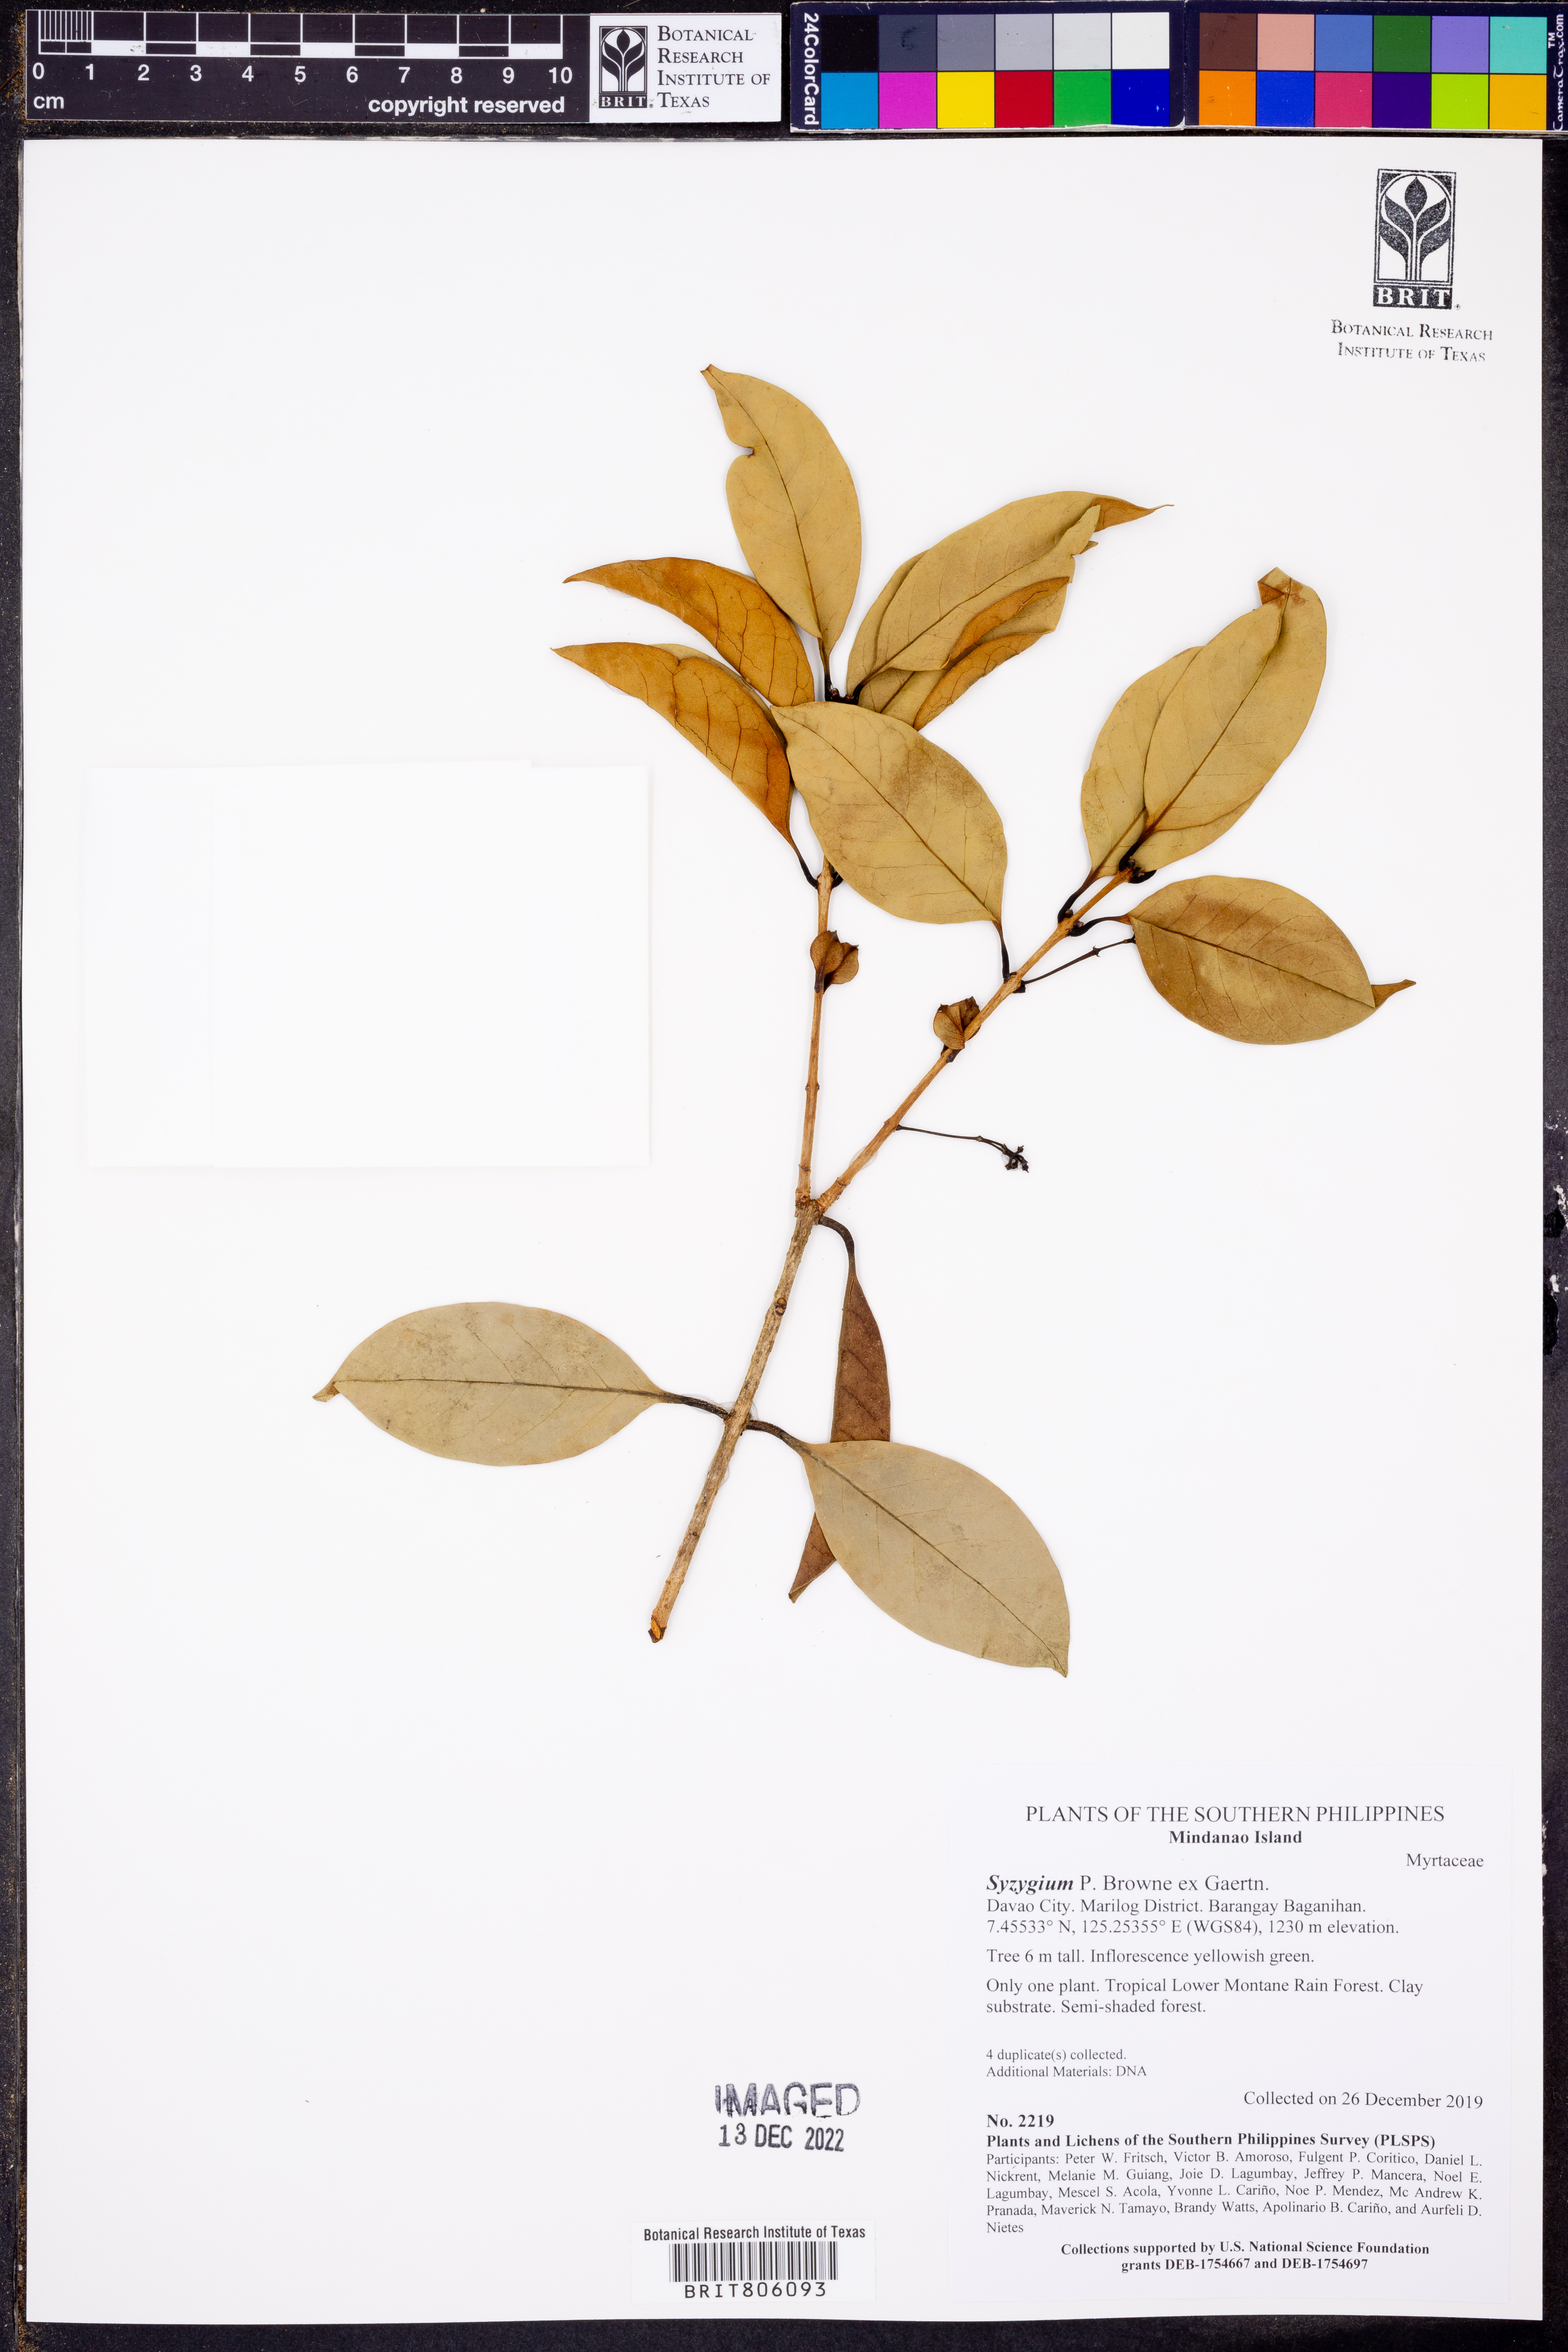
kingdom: Plantae
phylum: Tracheophyta
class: Magnoliopsida
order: Myrtales
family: Myrtaceae
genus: Syzygium
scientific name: Syzygium
